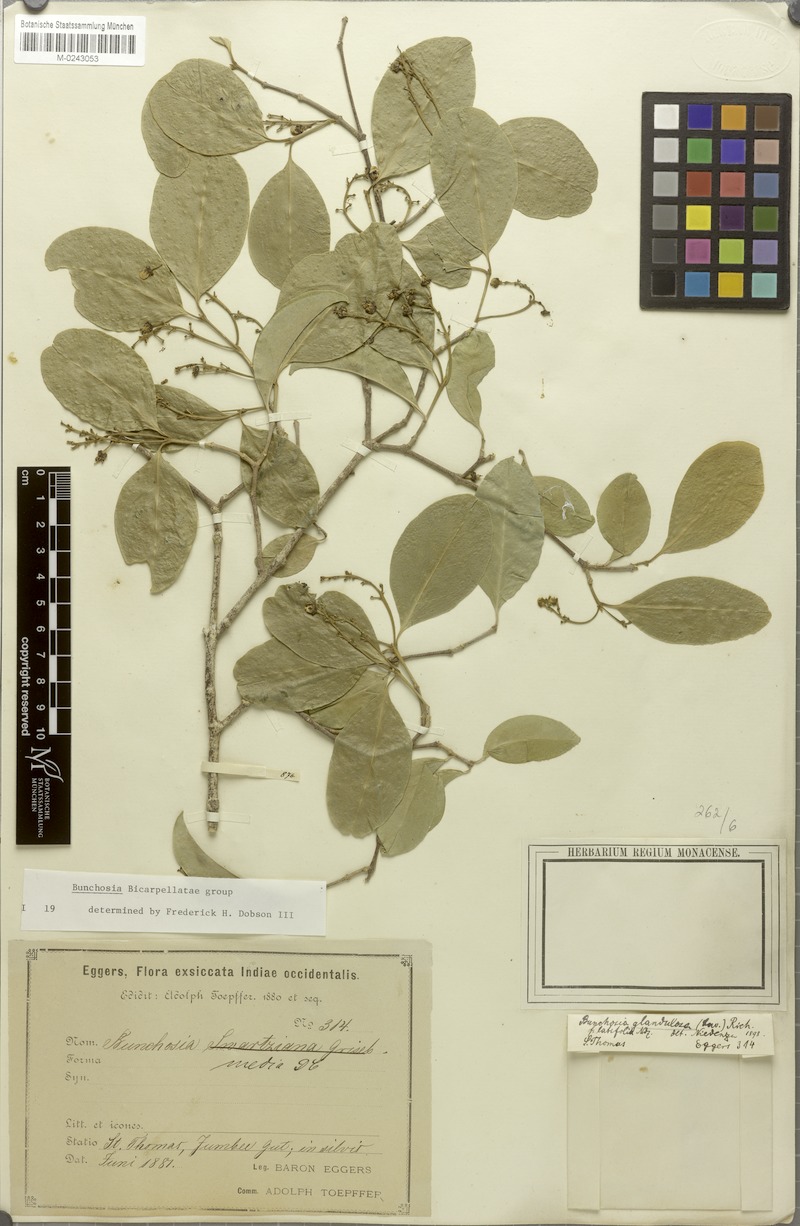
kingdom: Plantae
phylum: Tracheophyta
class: Magnoliopsida
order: Malpighiales
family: Malpighiaceae
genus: Bunchosia
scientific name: Bunchosia glandulosa
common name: Cafe forastero
